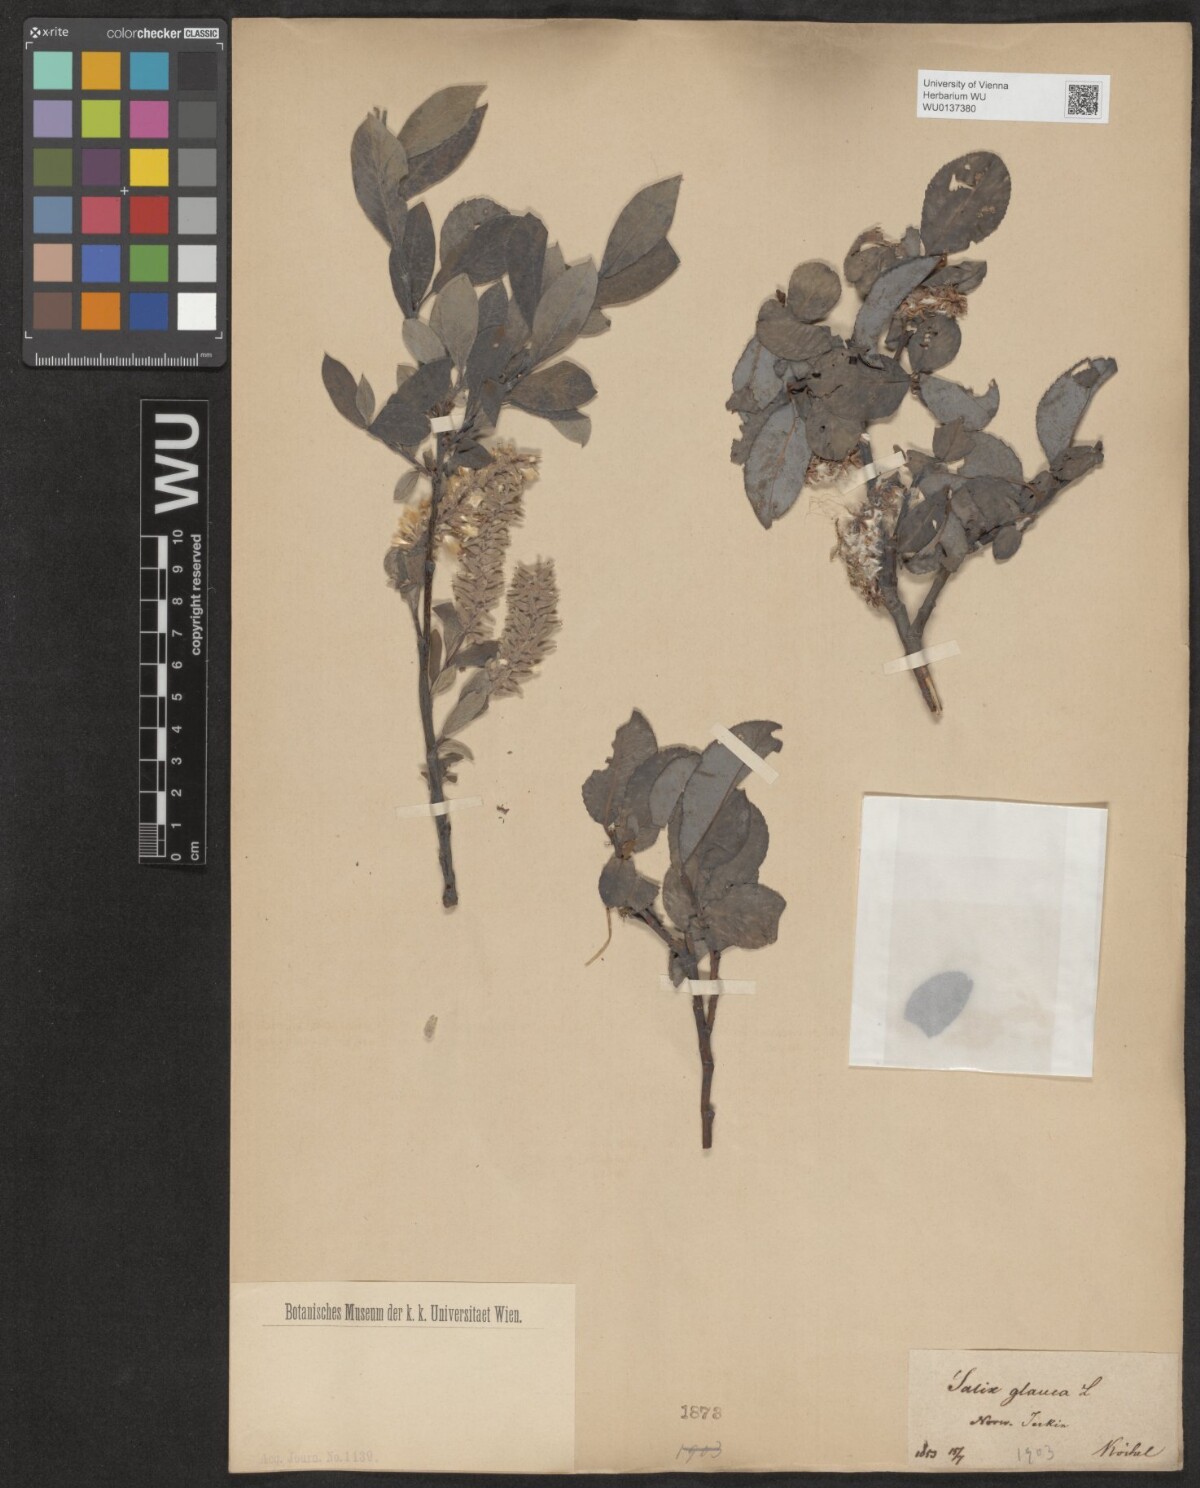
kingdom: Plantae
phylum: Tracheophyta
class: Magnoliopsida
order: Malpighiales
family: Salicaceae
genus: Salix
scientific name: Salix glauca
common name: Glaucous willow
